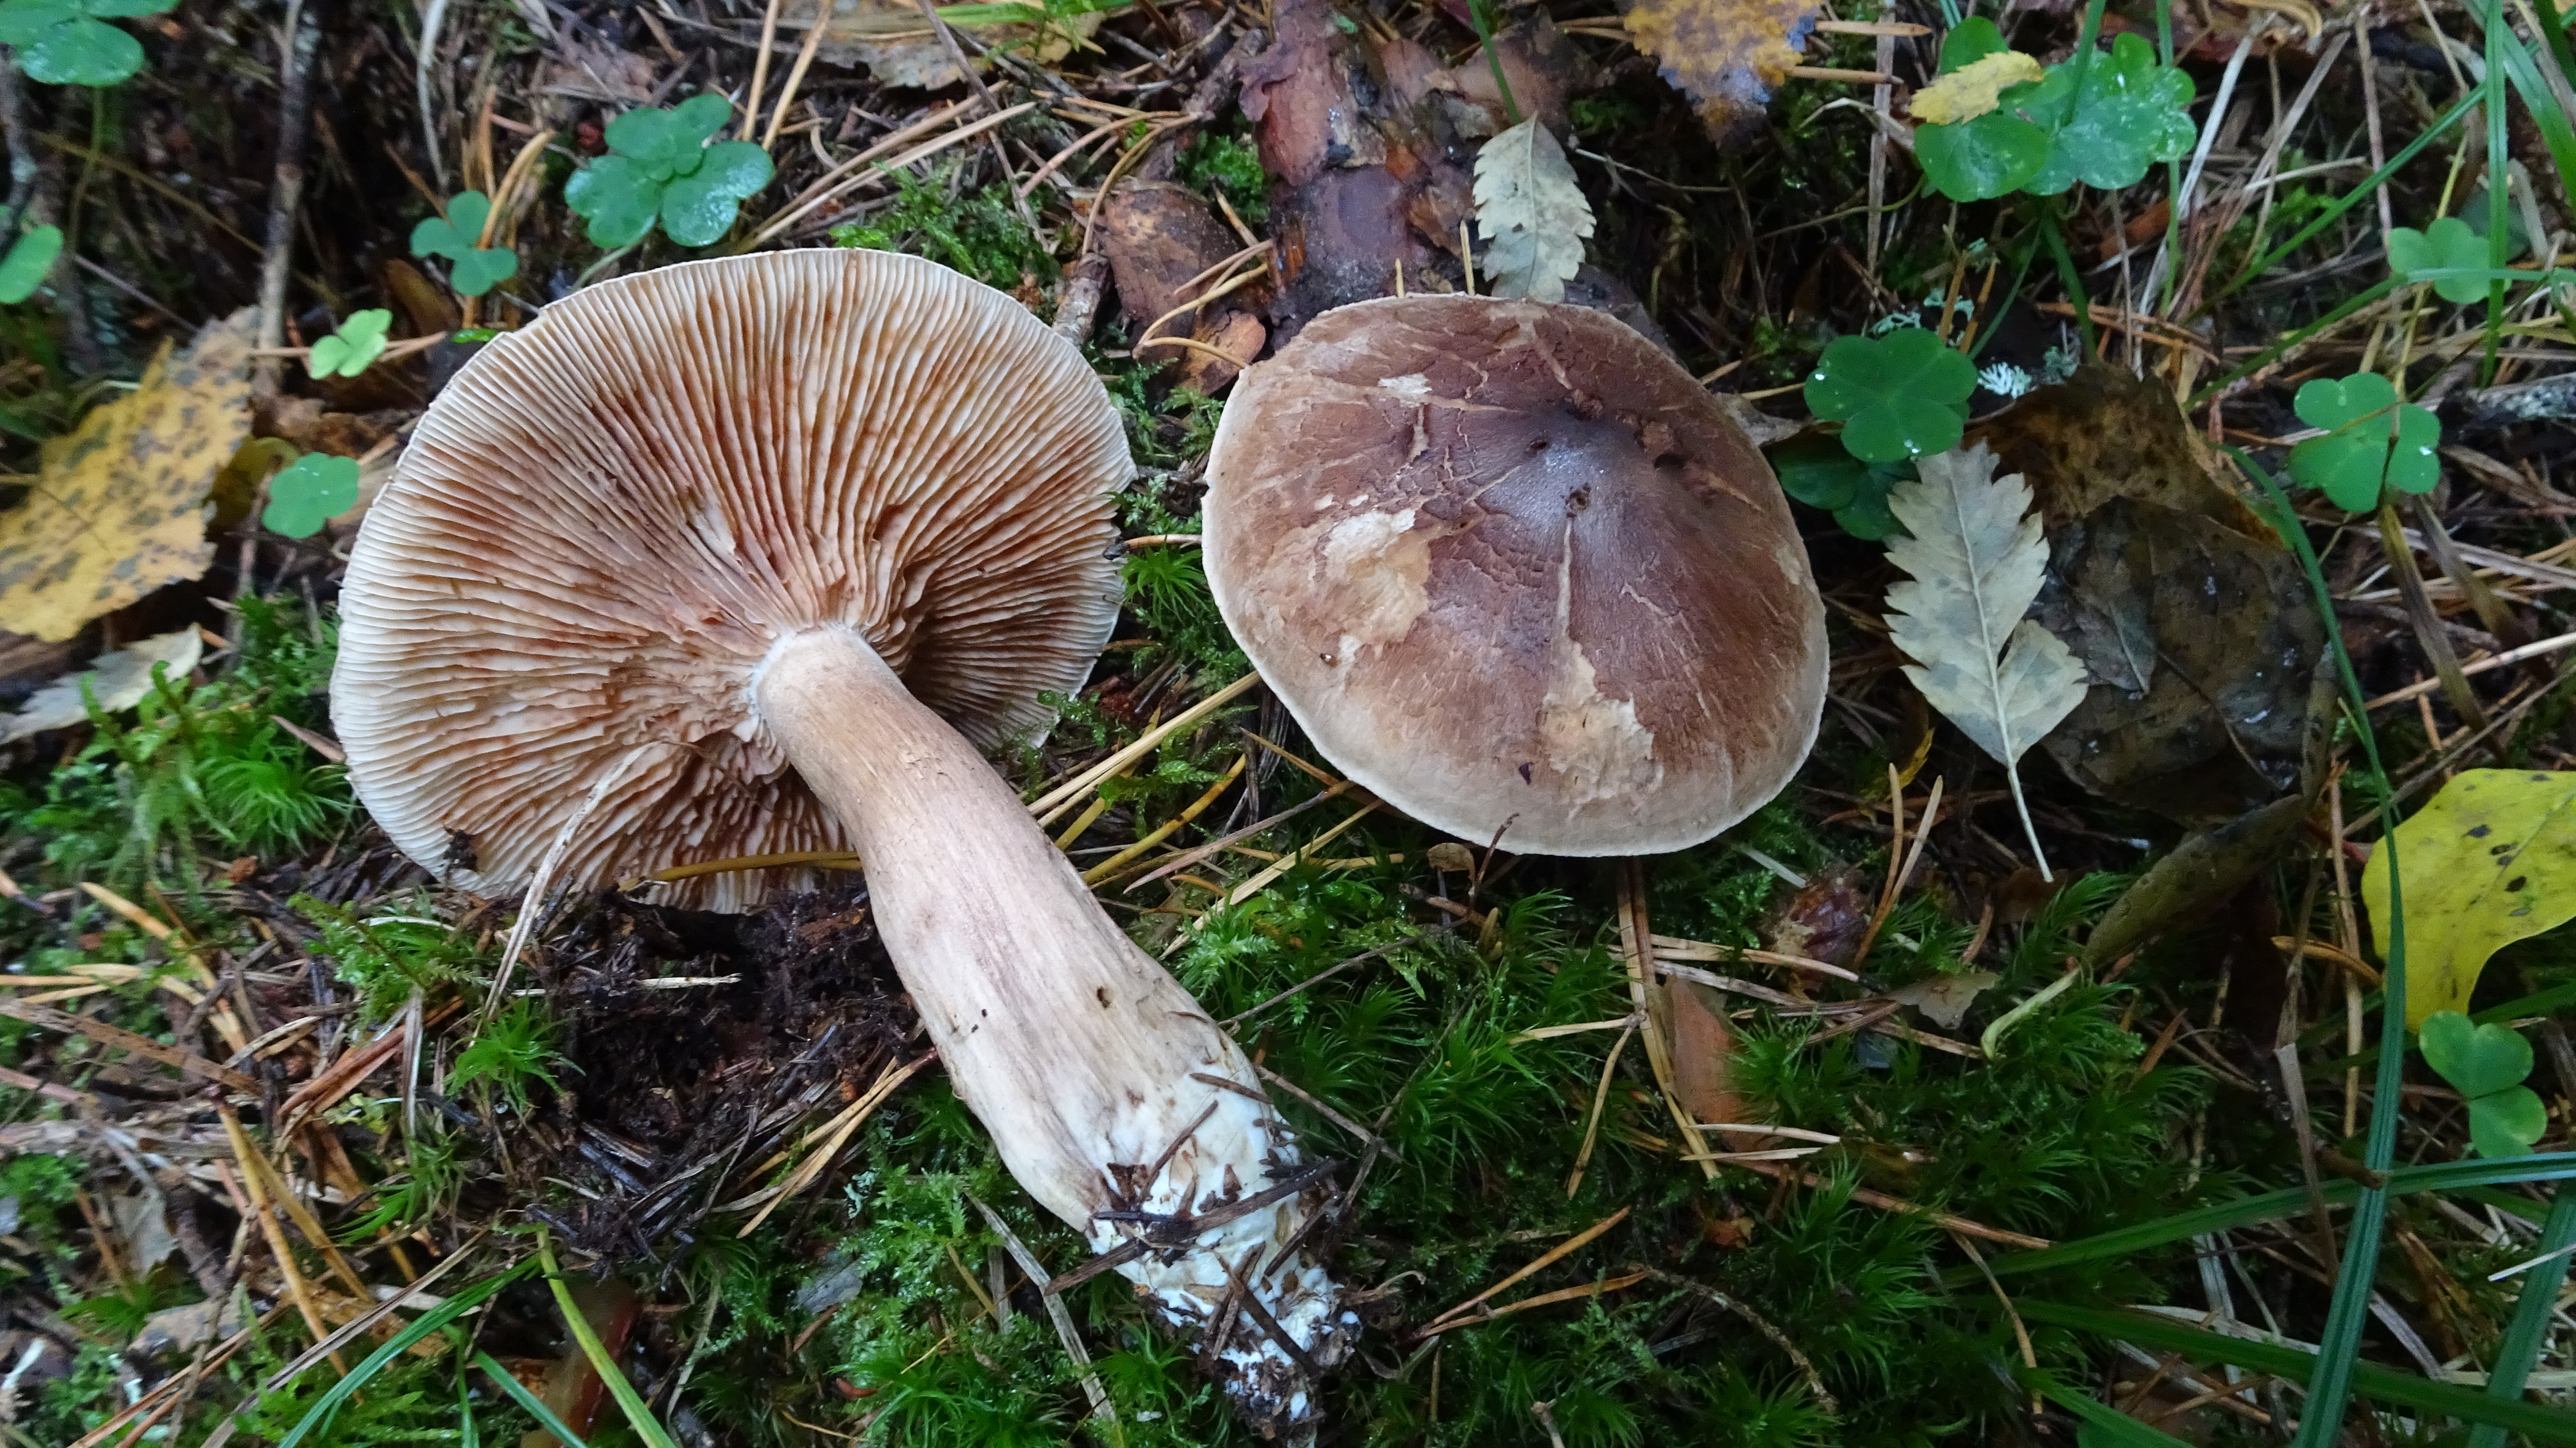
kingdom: Fungi
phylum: Basidiomycota
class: Agaricomycetes
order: Agaricales
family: Tricholomataceae
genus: Tricholoma
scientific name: Tricholoma imbricatum
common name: Matt knight
